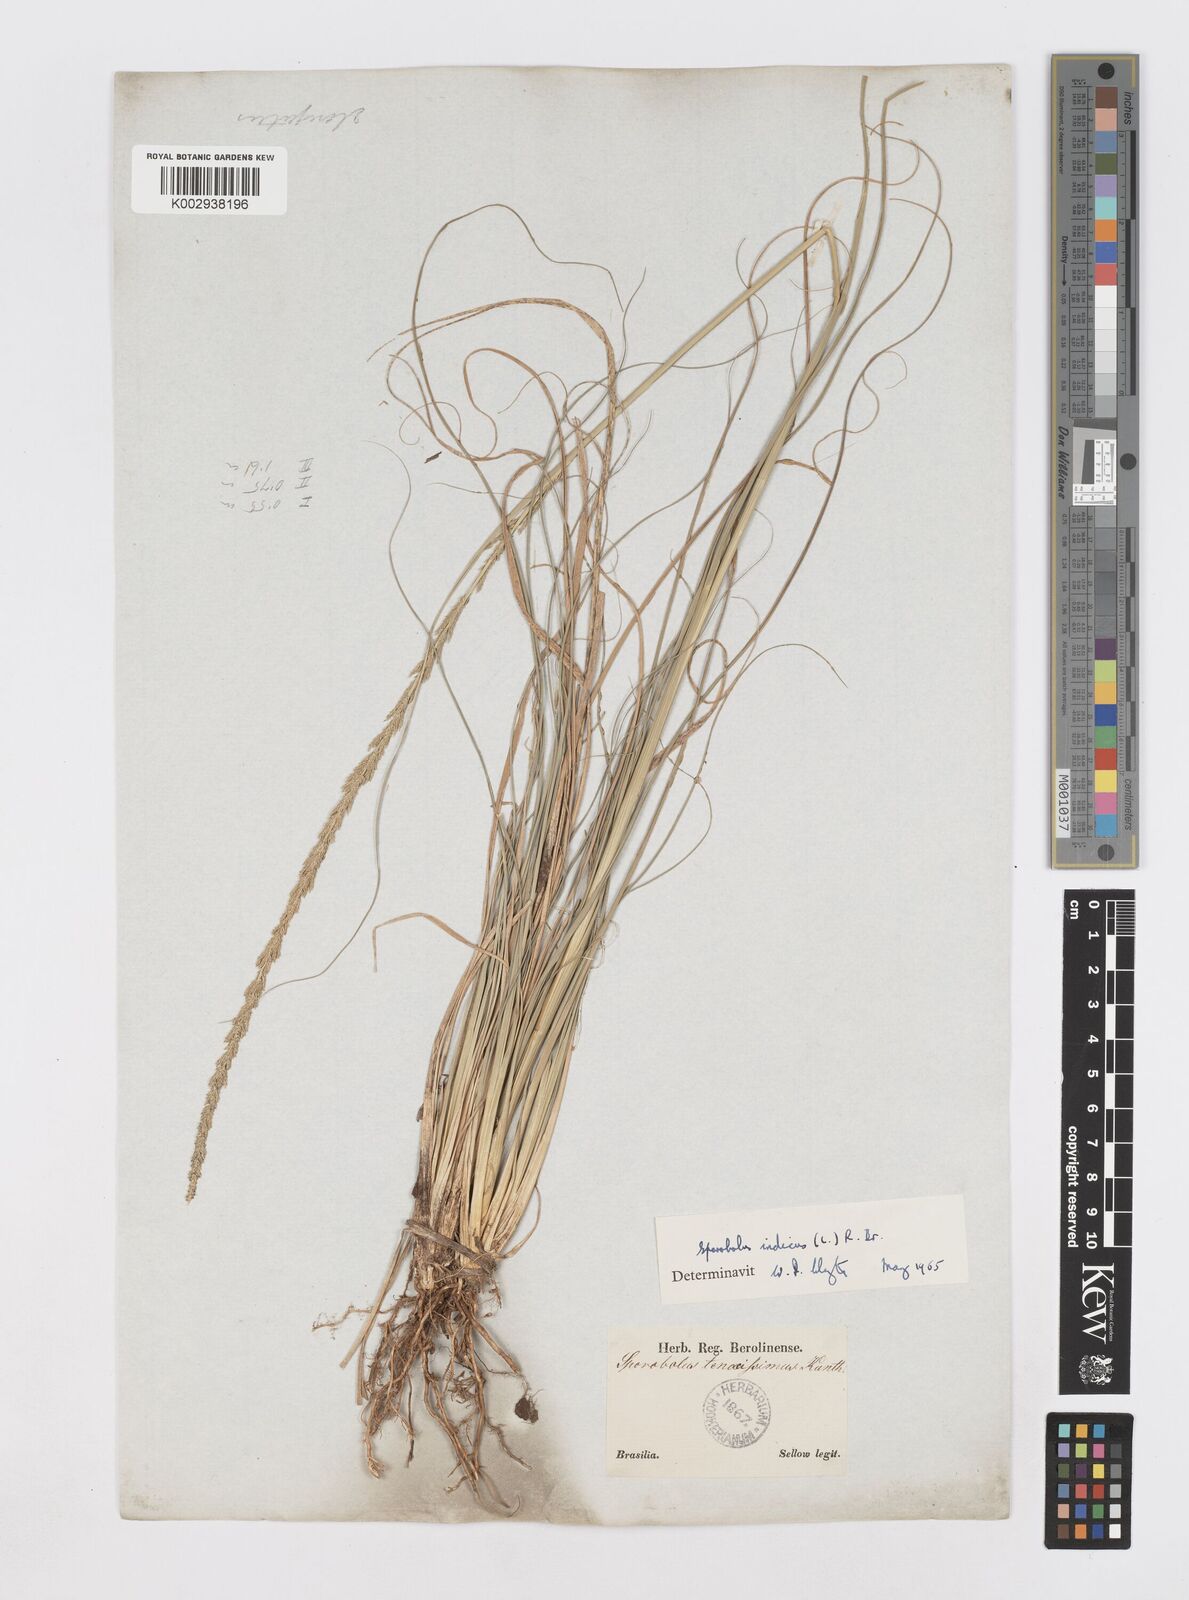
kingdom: Plantae
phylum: Tracheophyta
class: Liliopsida
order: Poales
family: Poaceae
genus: Sporobolus
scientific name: Sporobolus indicus
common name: Smut grass
